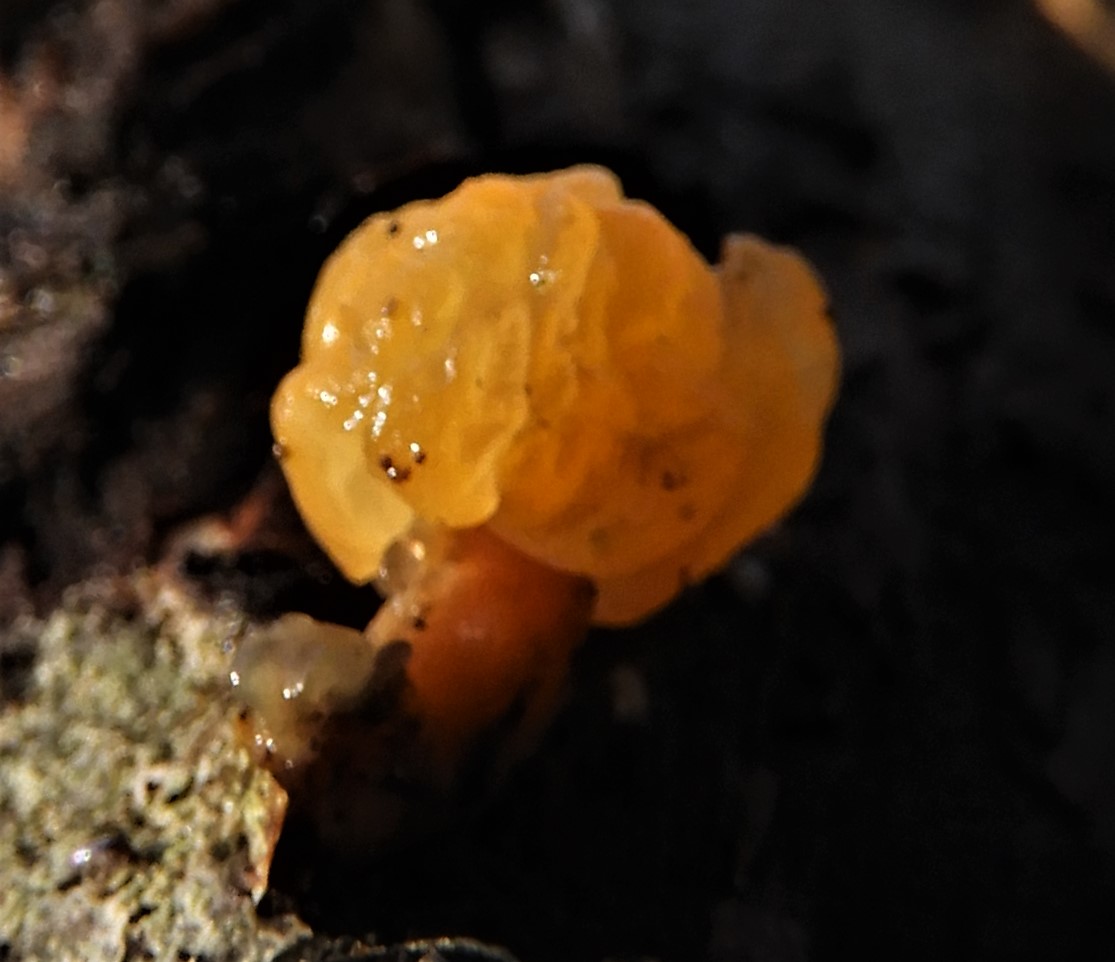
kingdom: Fungi
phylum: Basidiomycota
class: Dacrymycetes
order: Dacrymycetales
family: Dacrymycetaceae
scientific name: Dacrymycetaceae
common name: tåresvampfamilien
